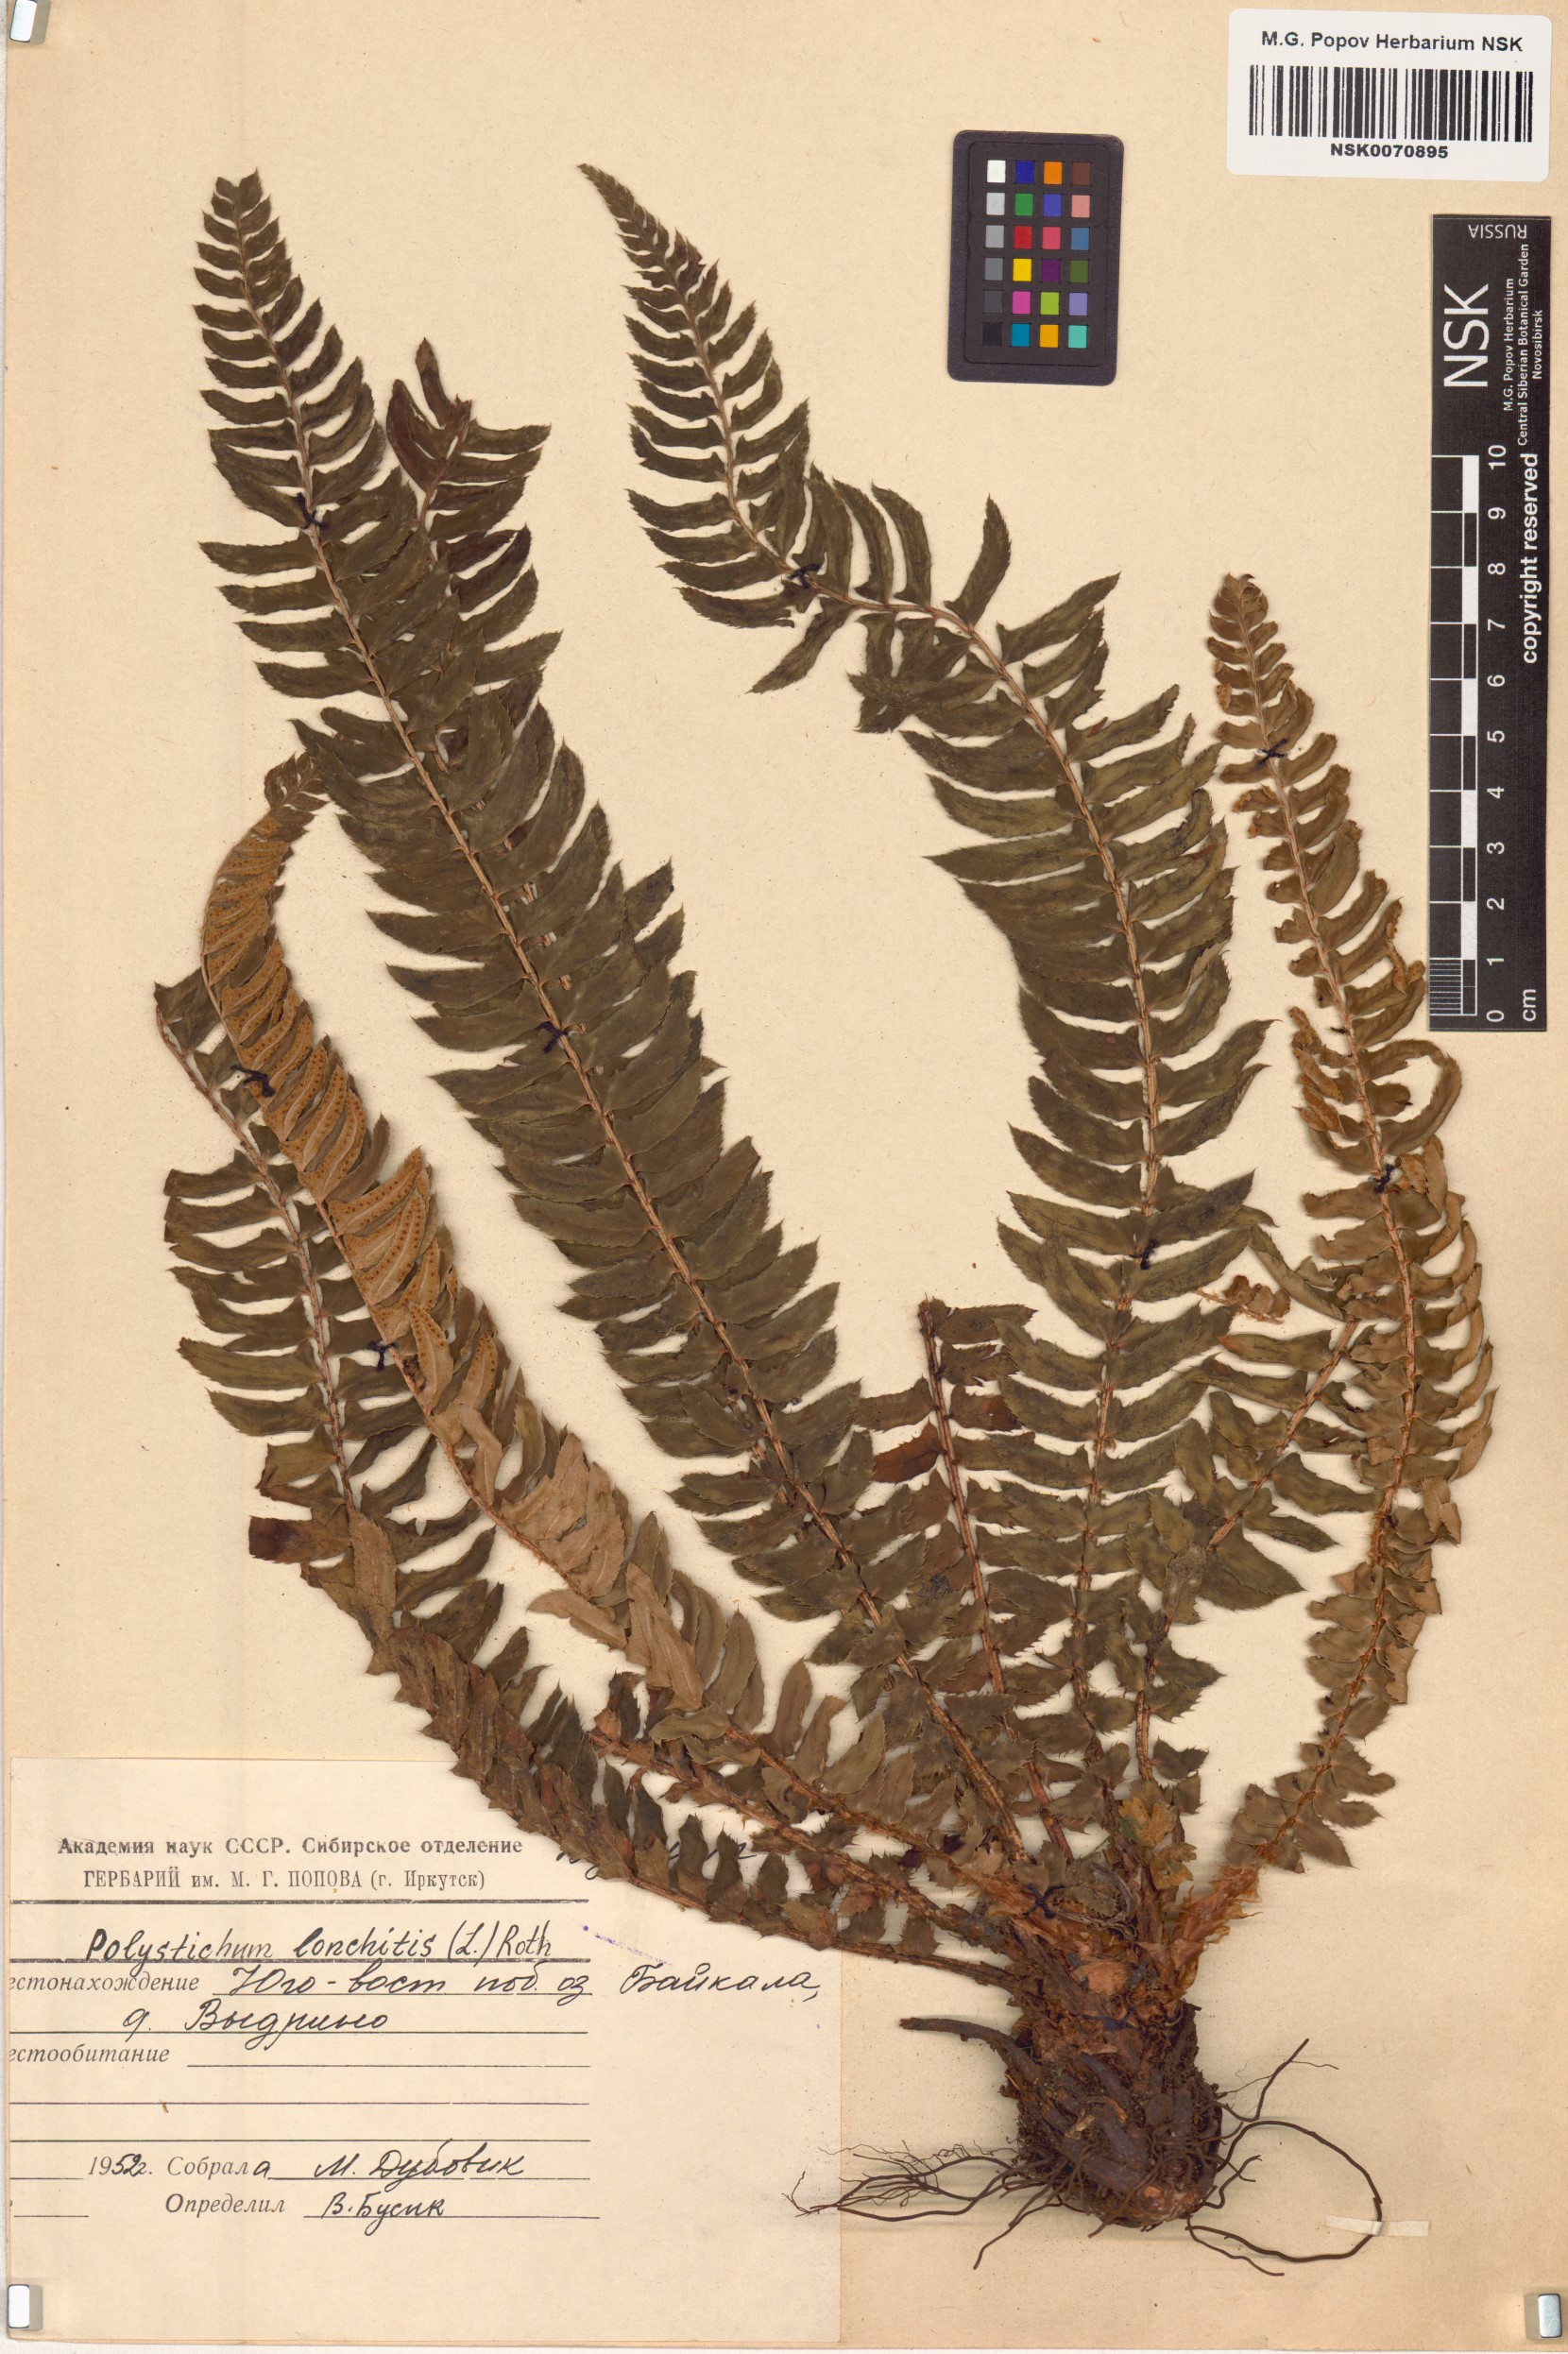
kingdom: Plantae
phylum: Tracheophyta
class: Polypodiopsida
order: Polypodiales
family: Dryopteridaceae
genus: Polystichum
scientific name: Polystichum lonchitis
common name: Holly fern
